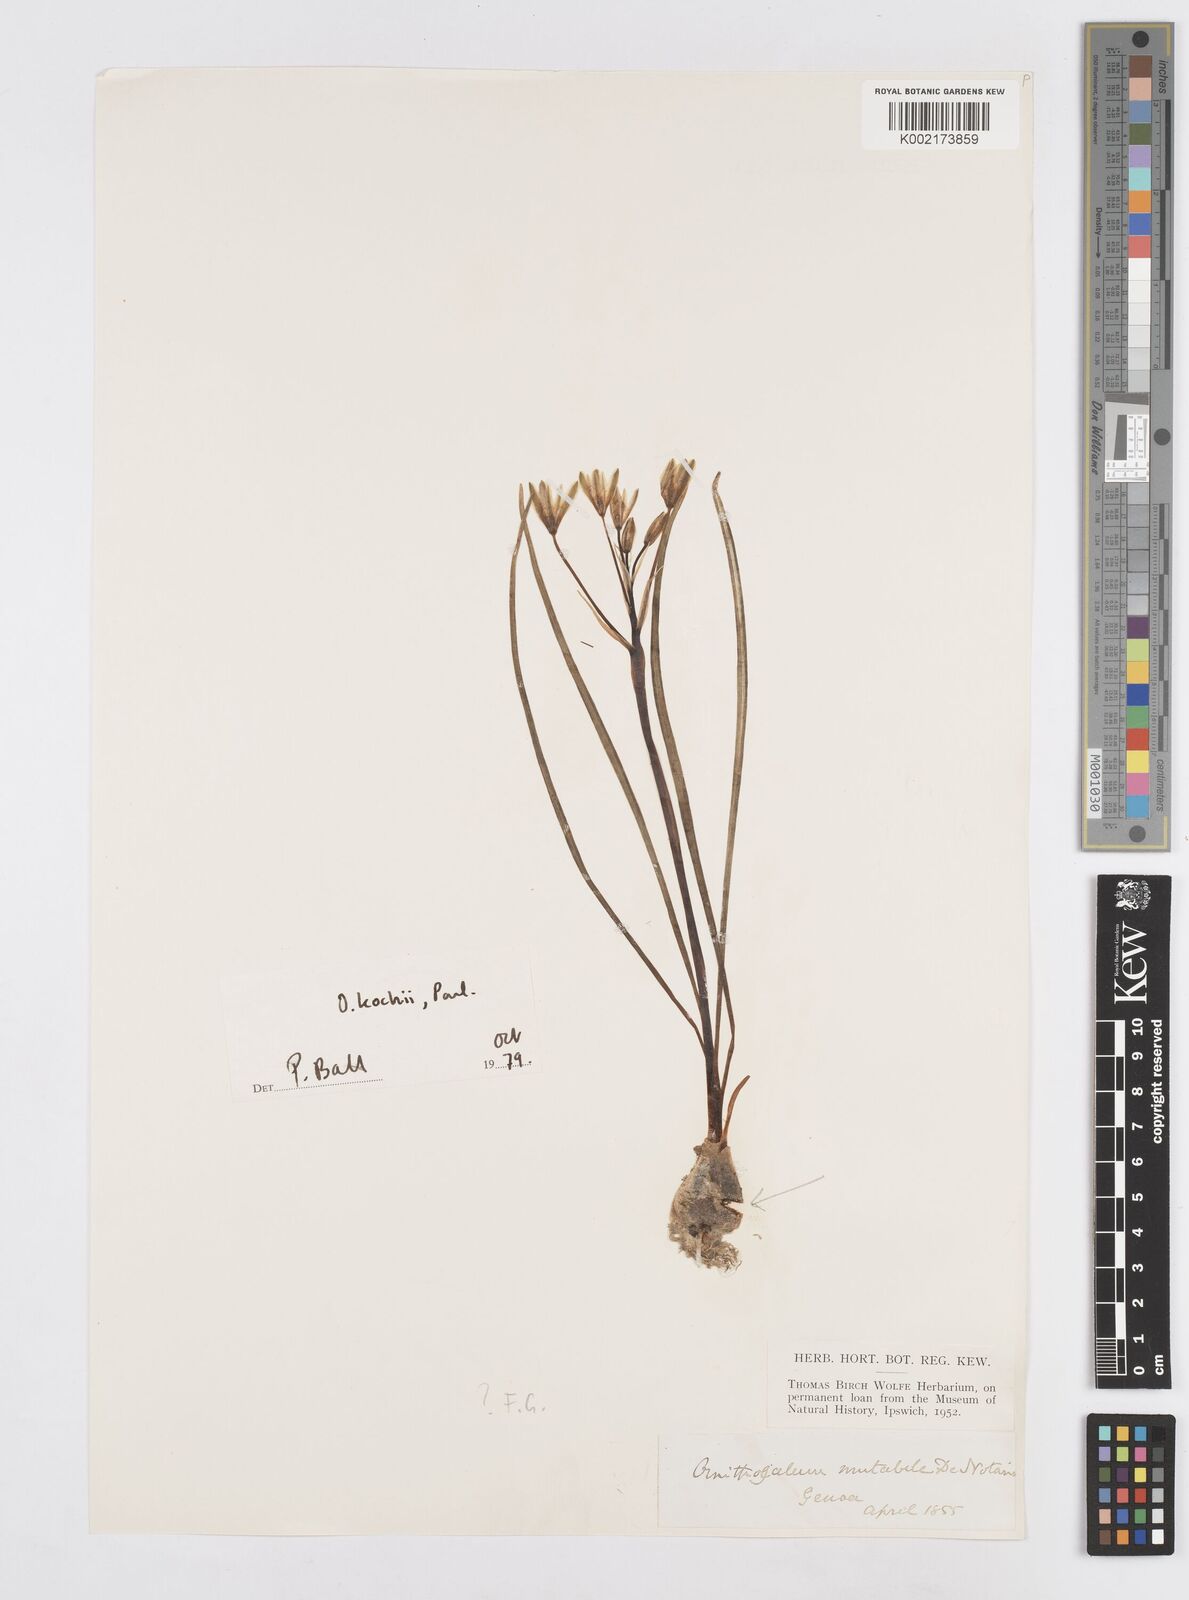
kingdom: Plantae
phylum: Tracheophyta
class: Liliopsida
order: Asparagales
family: Asparagaceae
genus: Ornithogalum
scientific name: Ornithogalum orthophyllum
